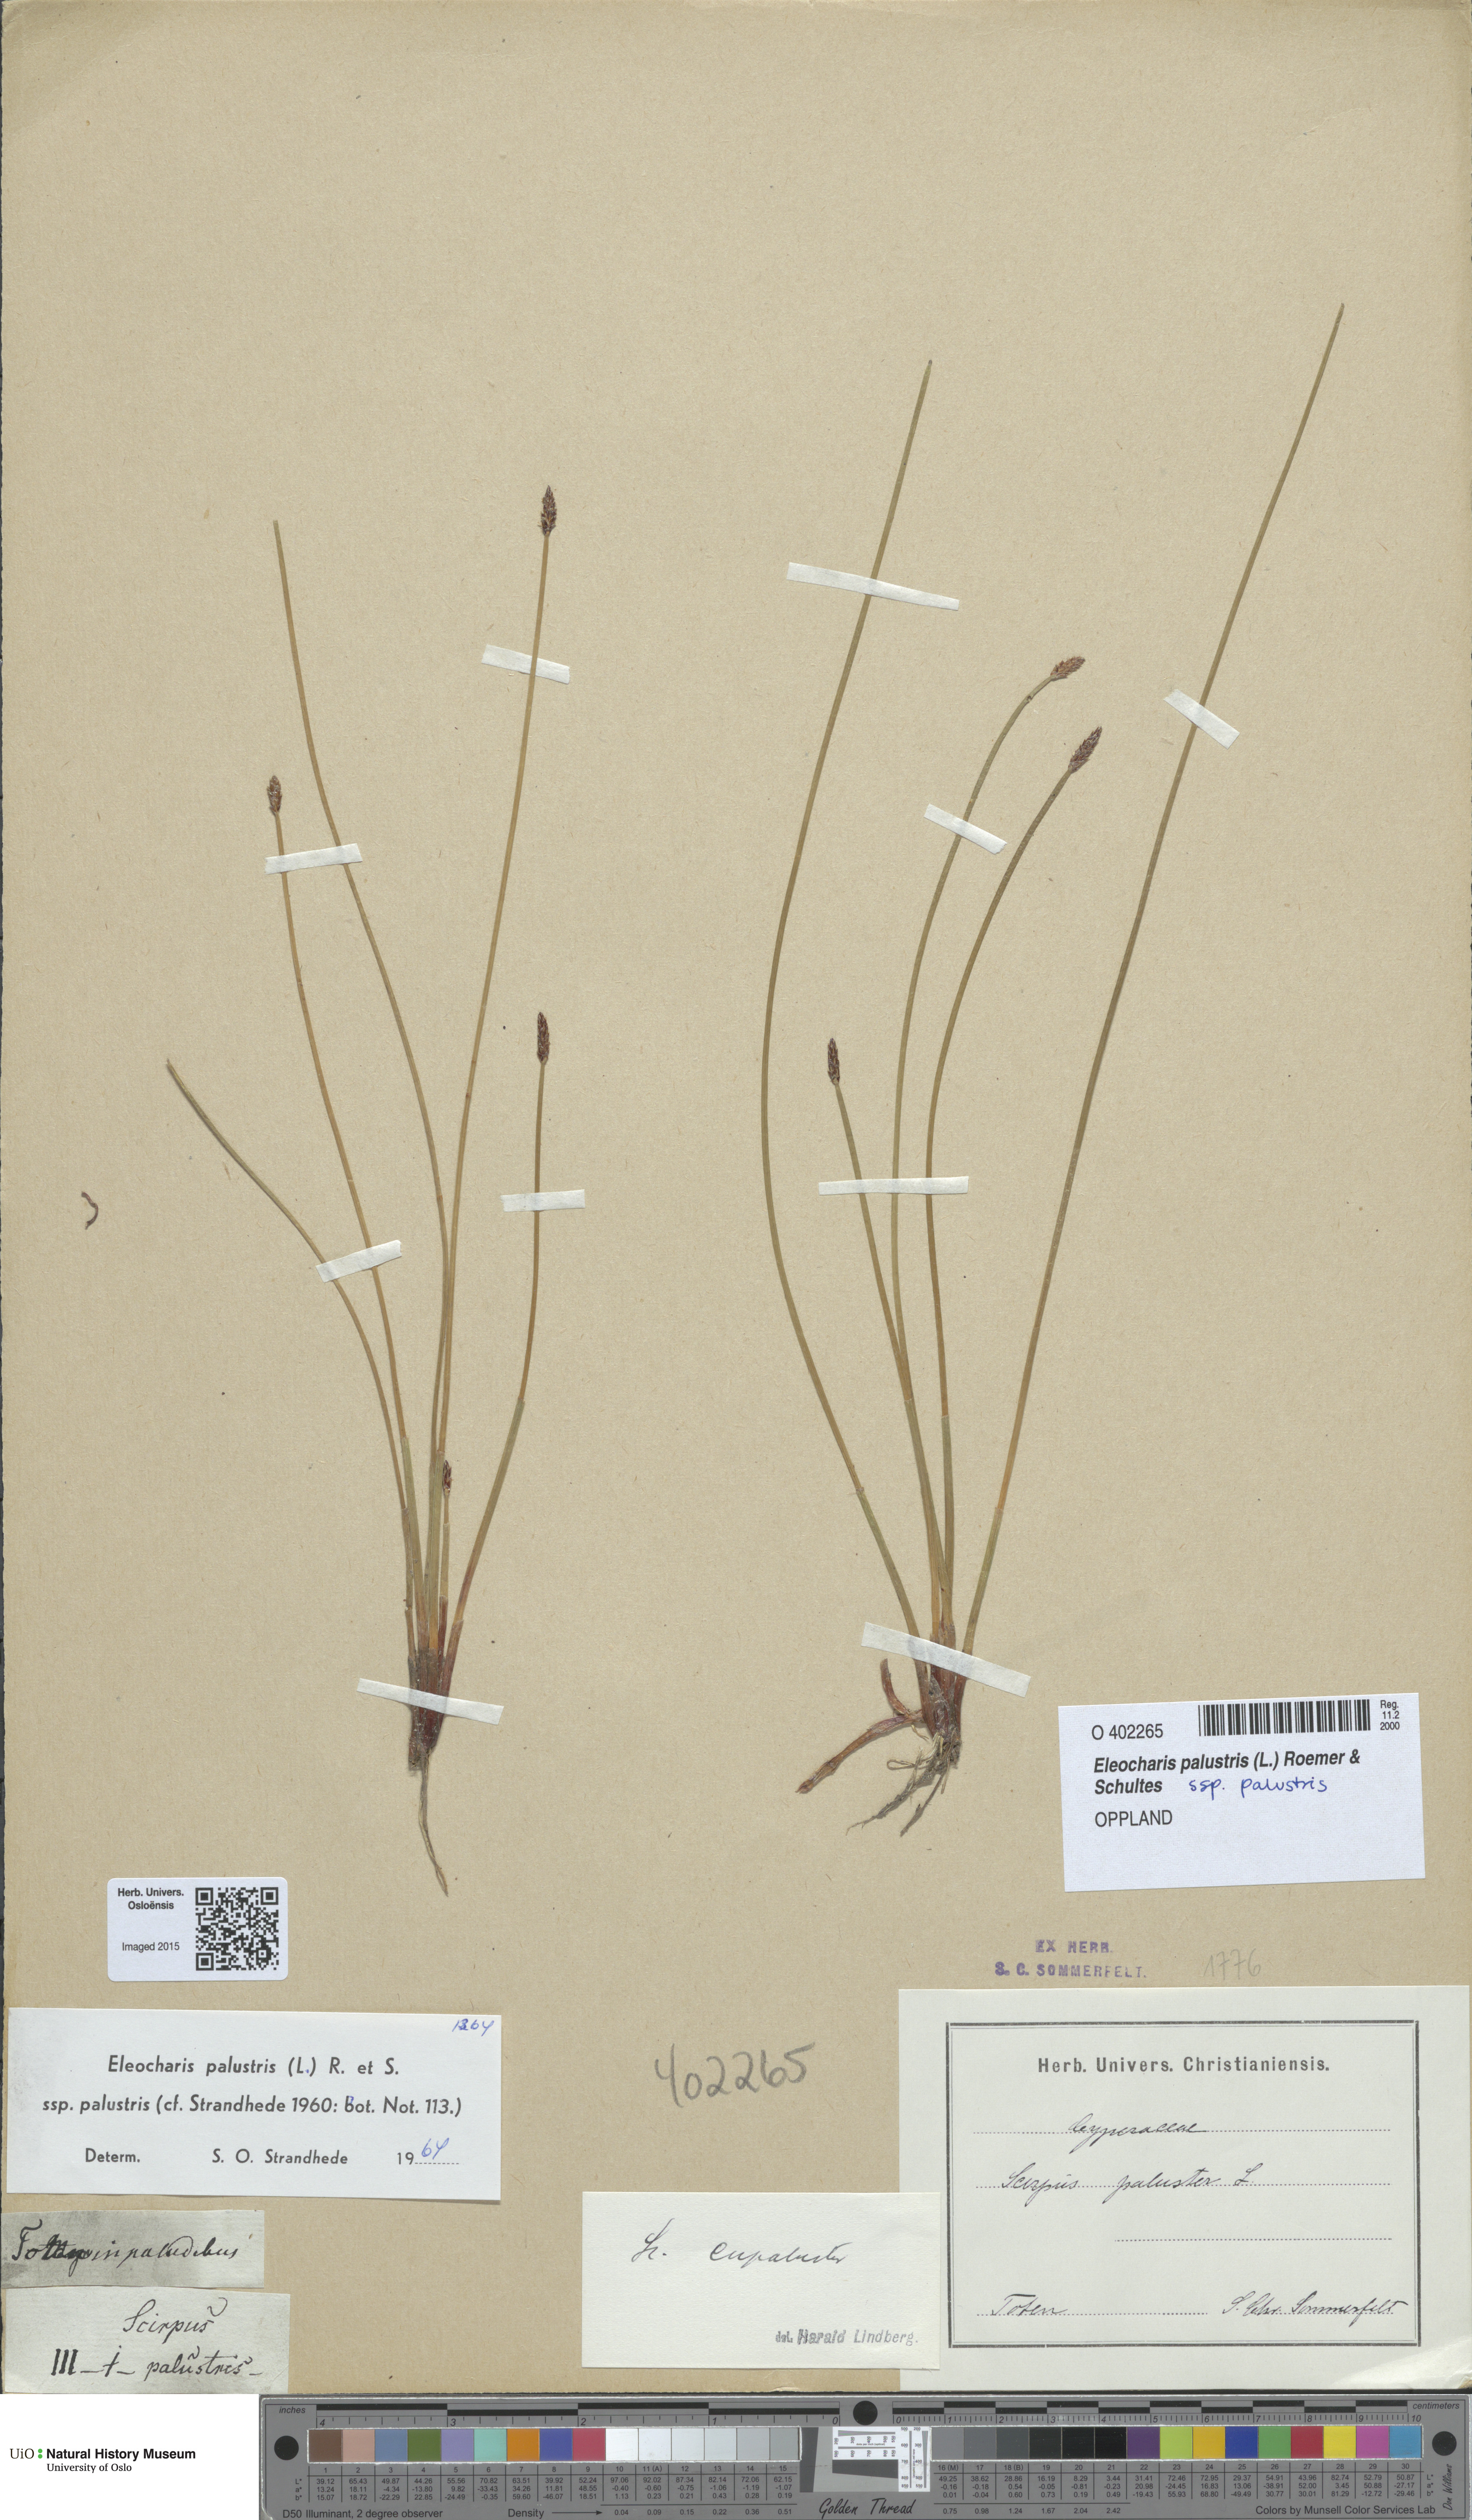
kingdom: Plantae
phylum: Tracheophyta
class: Liliopsida
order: Poales
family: Cyperaceae
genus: Eleocharis
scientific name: Eleocharis palustris
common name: Common spike-rush
